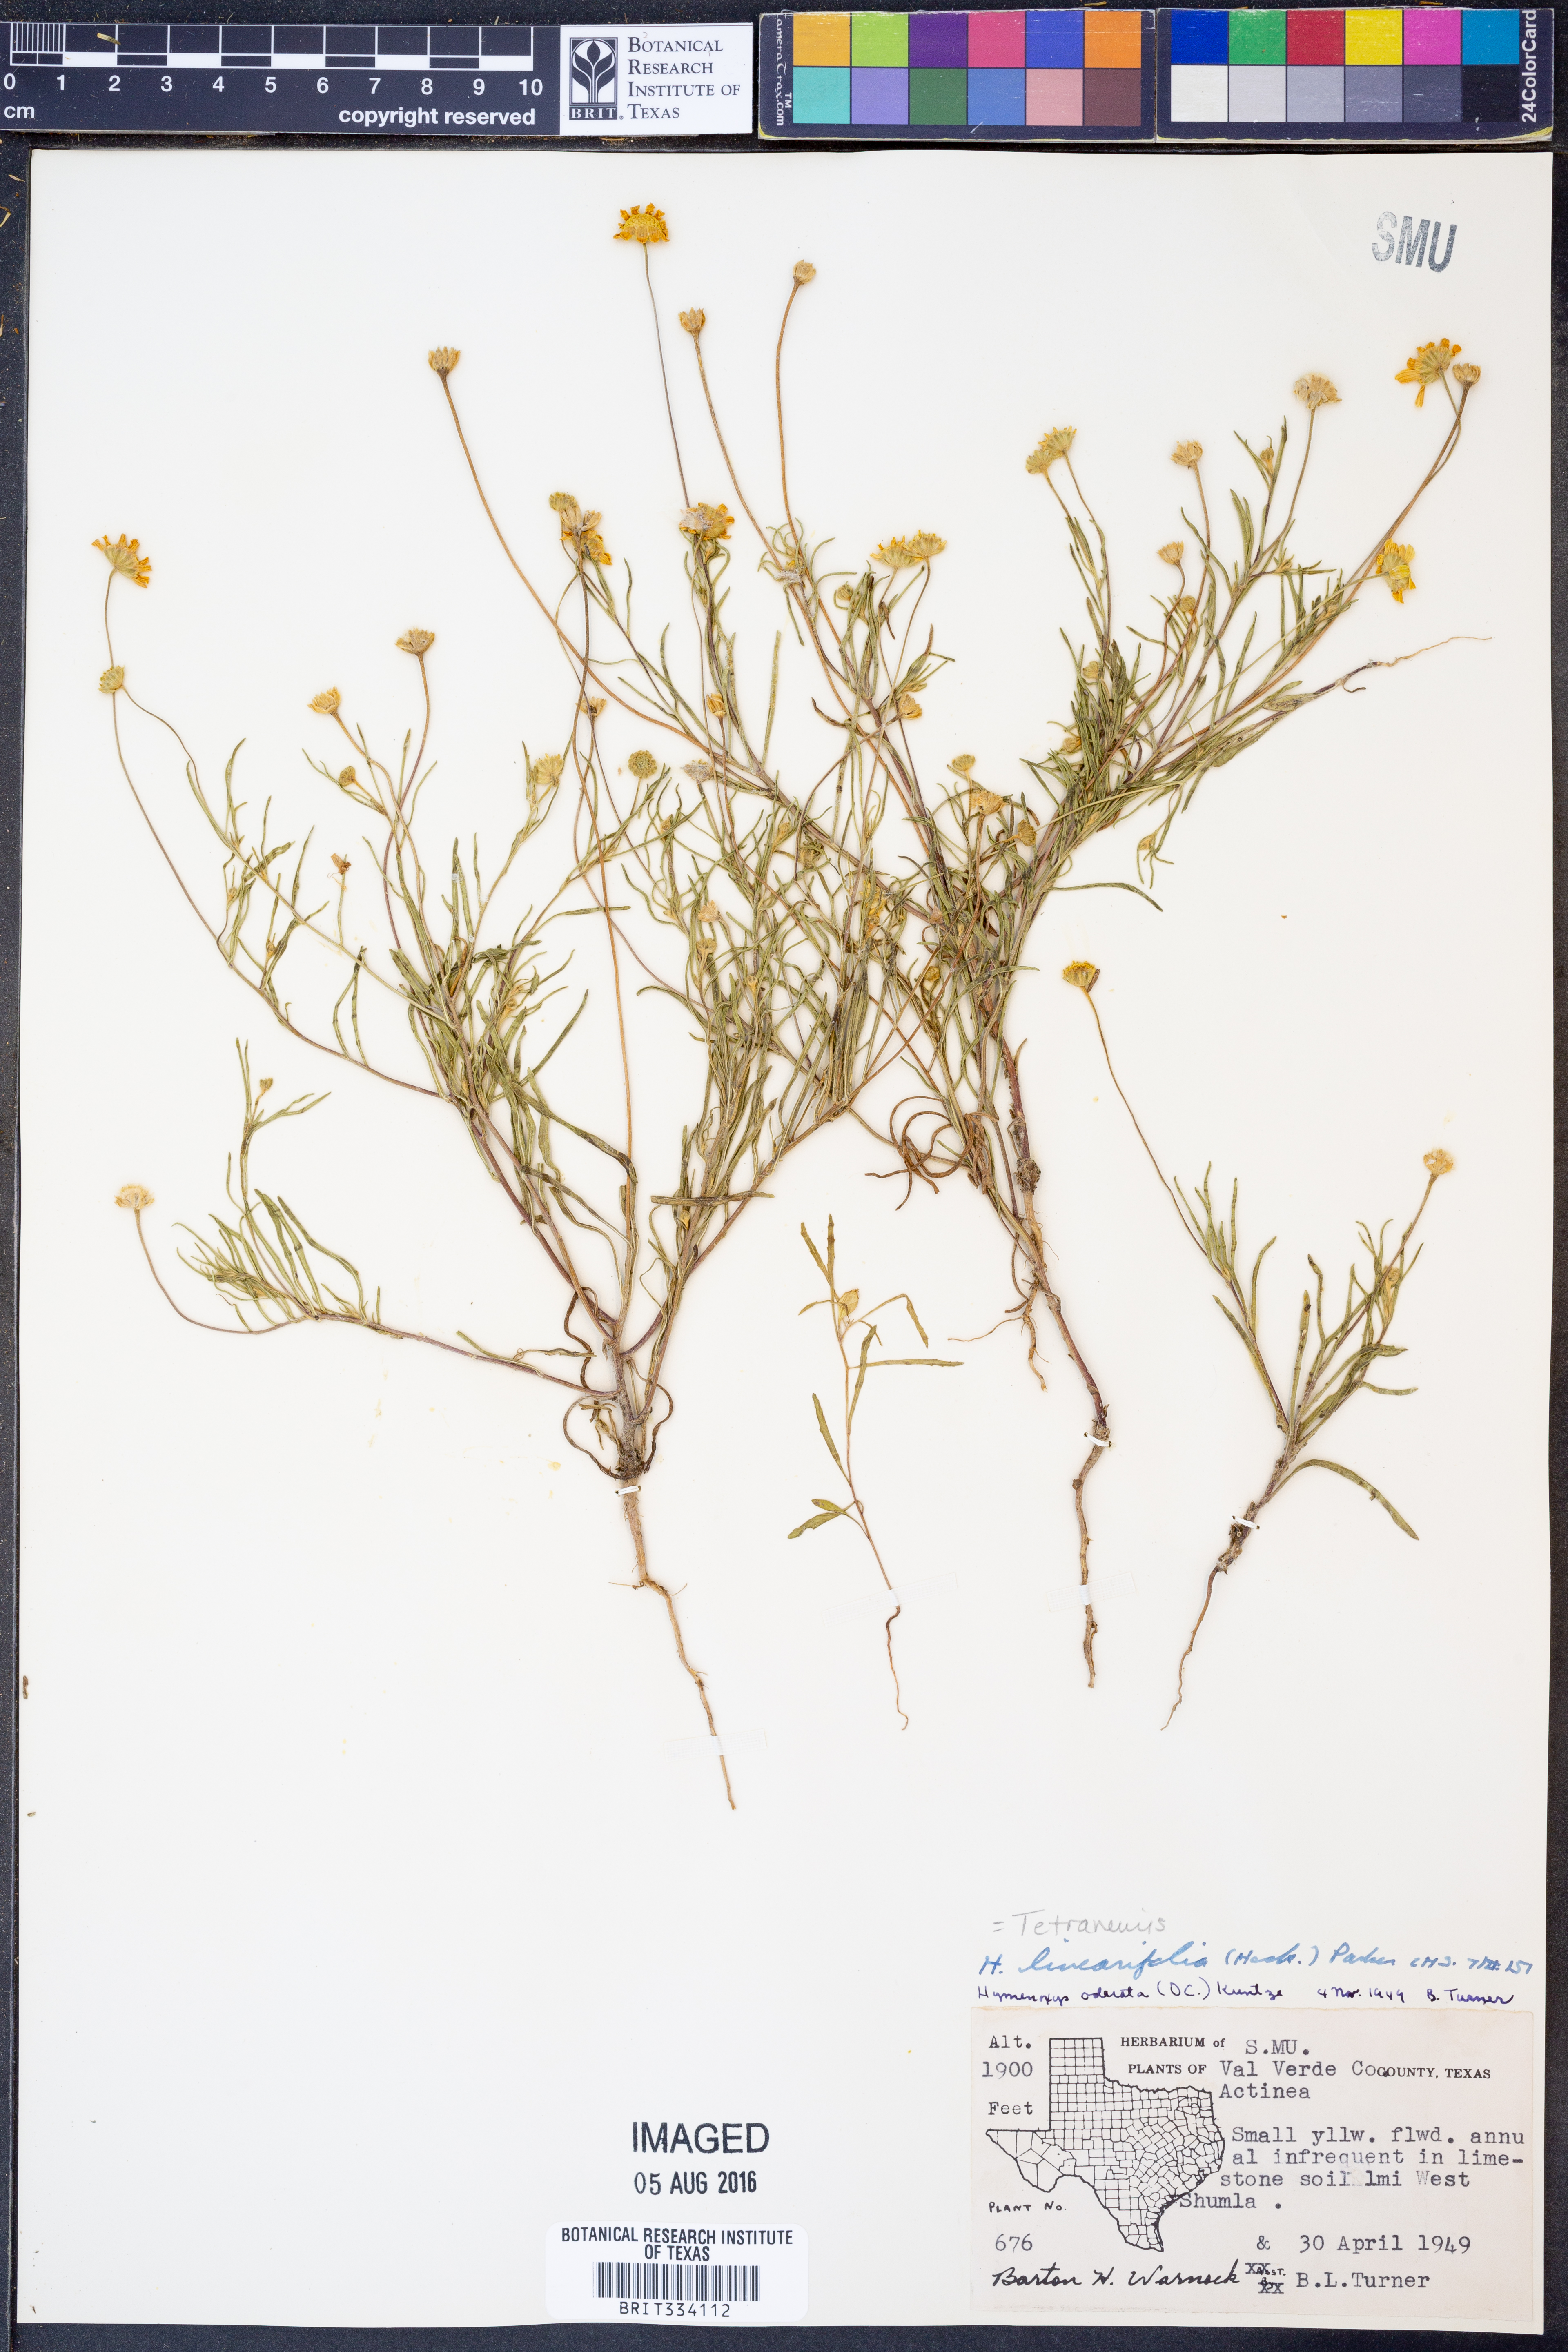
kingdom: Plantae
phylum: Tracheophyta
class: Magnoliopsida
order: Asterales
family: Asteraceae
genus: Tetraneuris
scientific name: Tetraneuris linearifolia
